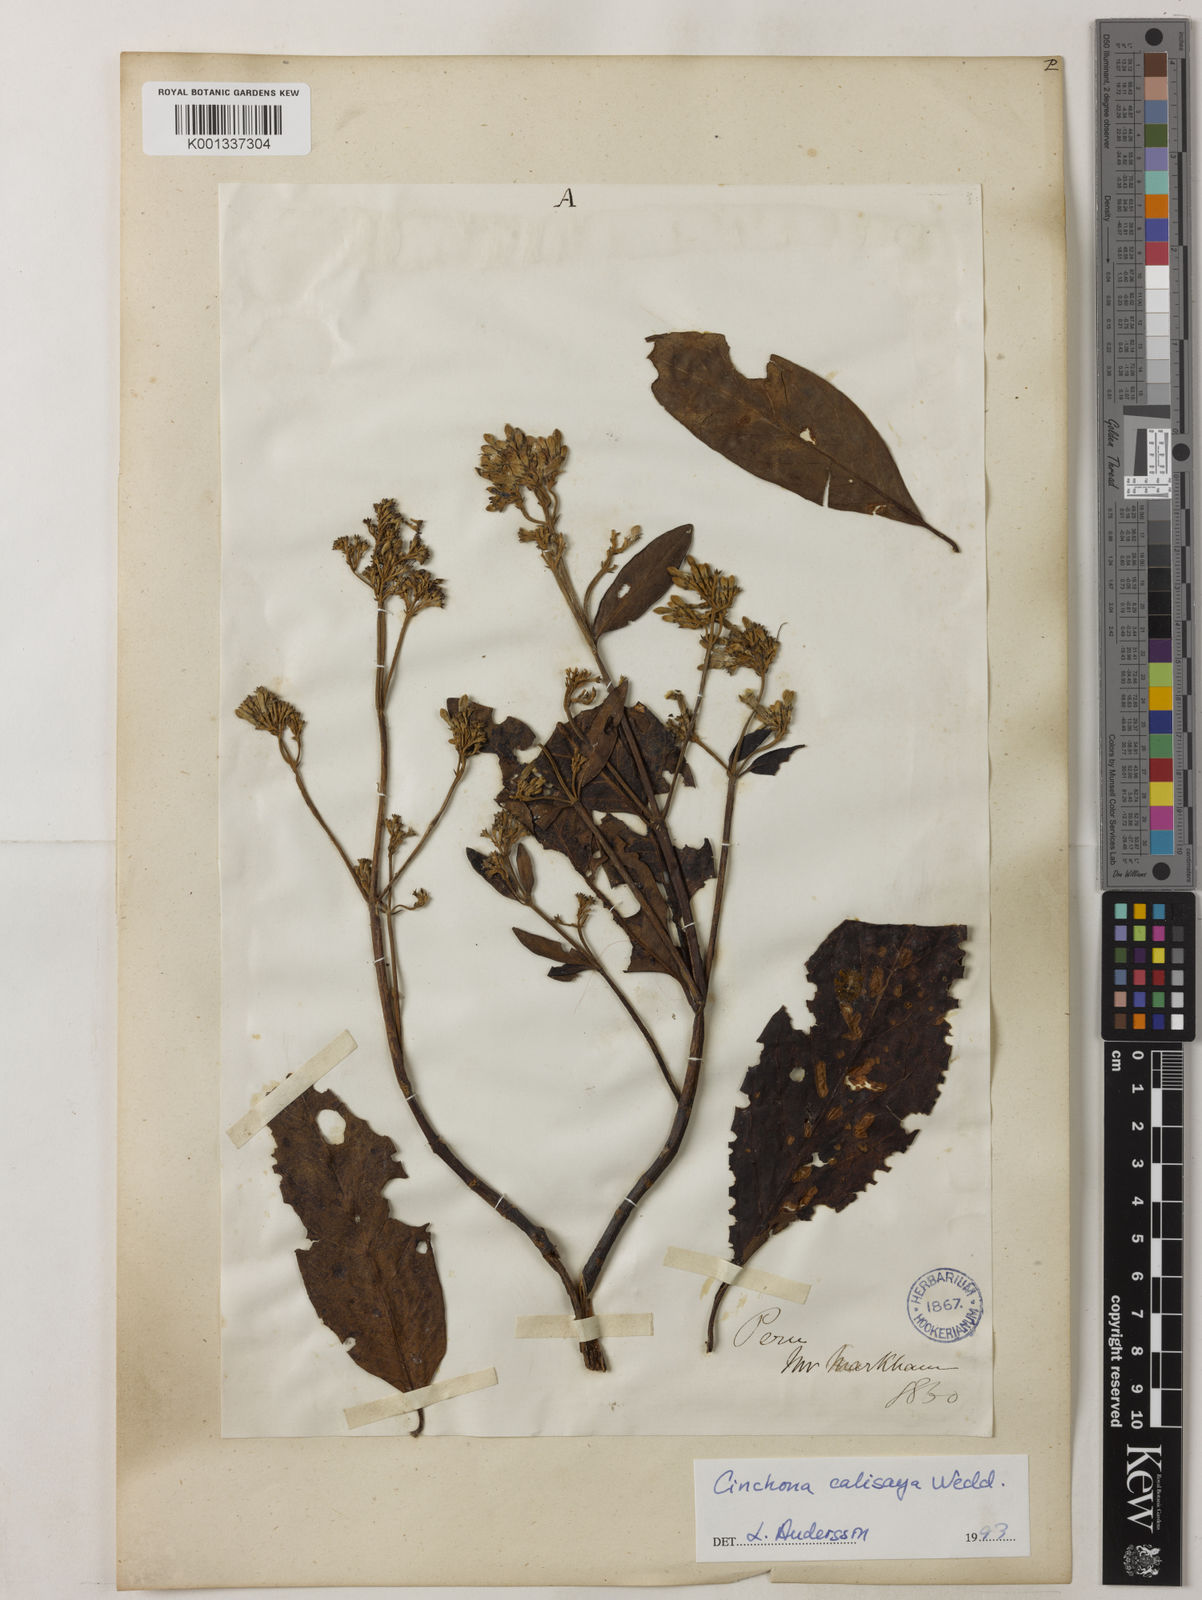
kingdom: Plantae
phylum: Tracheophyta
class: Magnoliopsida
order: Gentianales
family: Rubiaceae
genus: Cinchona
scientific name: Cinchona calisaya
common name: Ledgerbark
